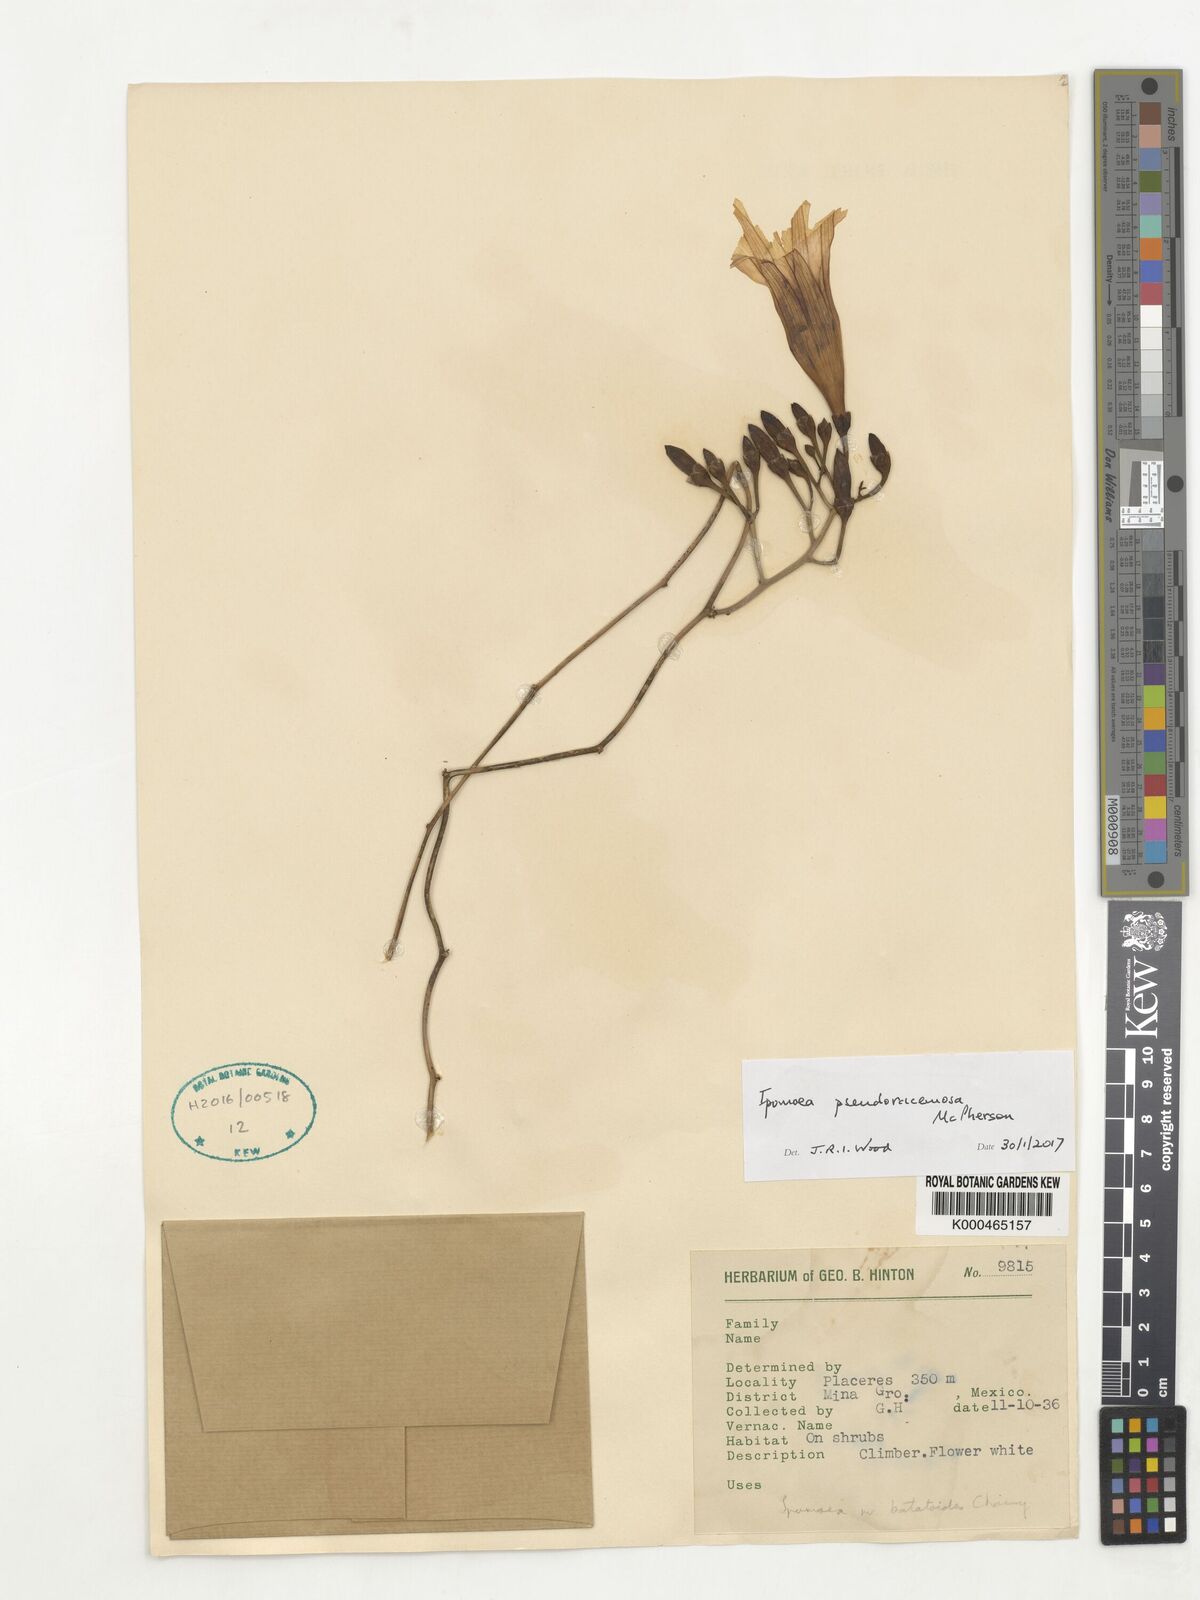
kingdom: Plantae
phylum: Tracheophyta
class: Magnoliopsida
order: Solanales
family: Convolvulaceae
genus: Ipomoea
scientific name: Ipomoea pseudoracemosa
